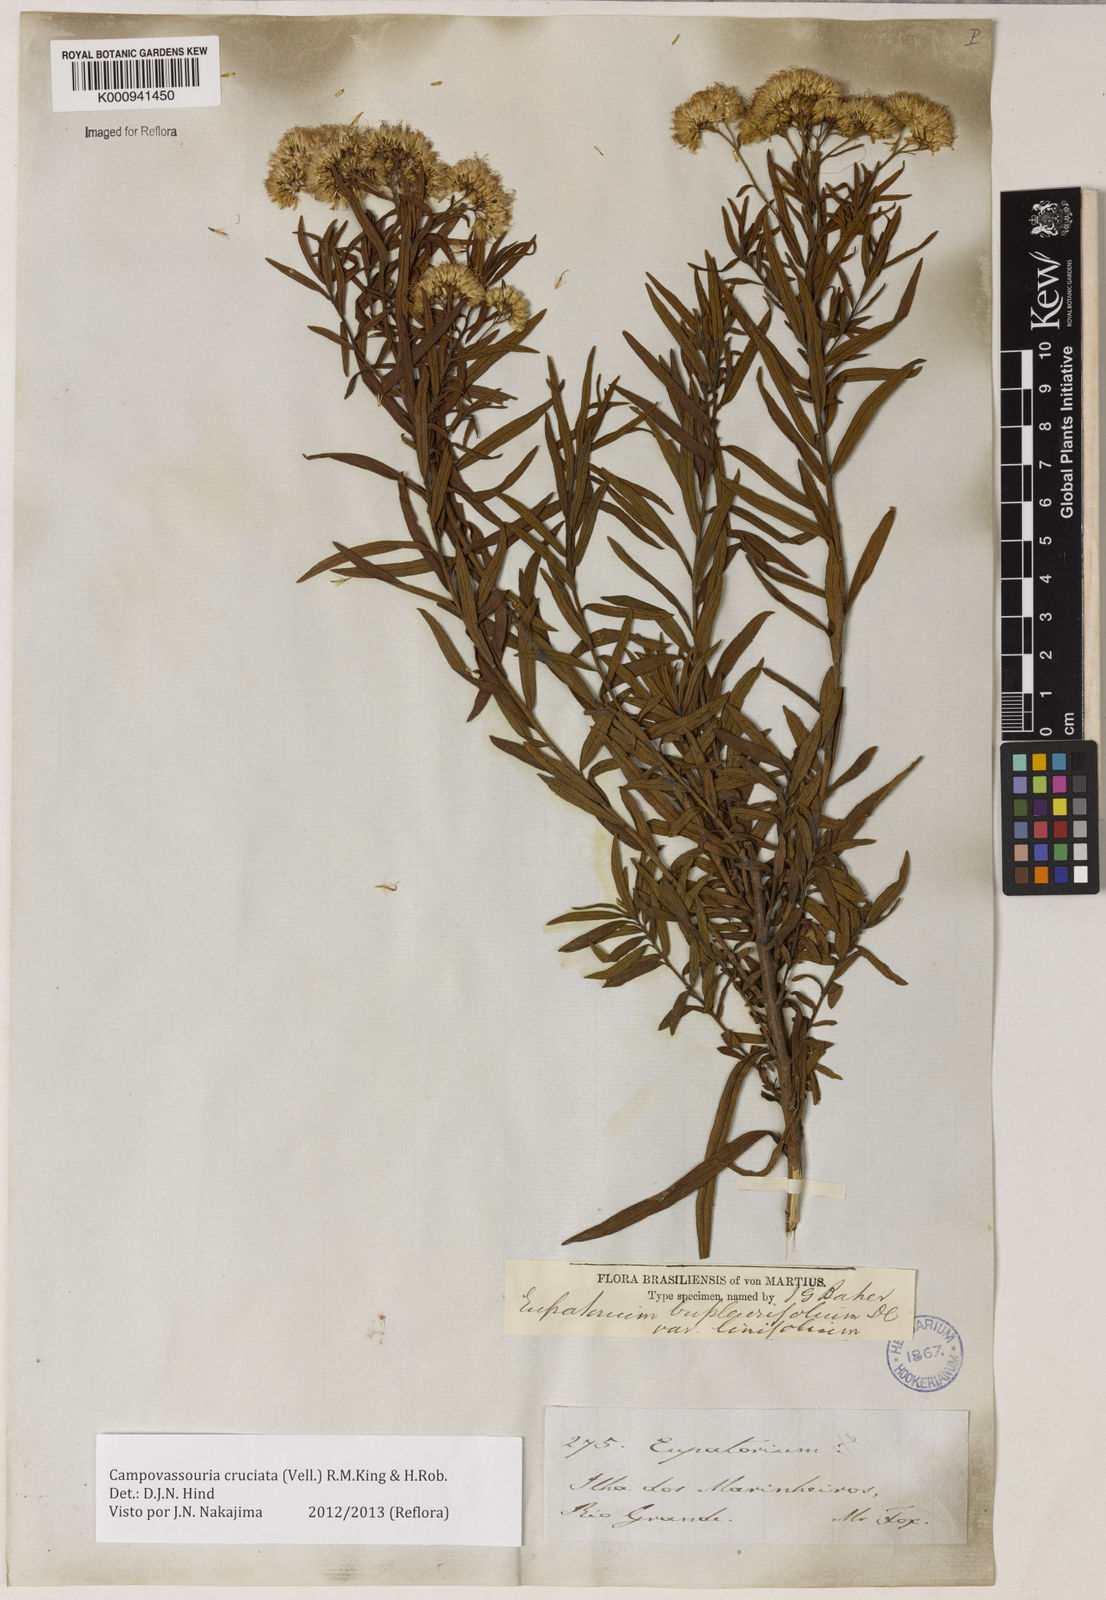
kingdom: Plantae
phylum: Tracheophyta
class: Magnoliopsida
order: Asterales
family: Asteraceae
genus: Campovassouria
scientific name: Campovassouria cruciata
